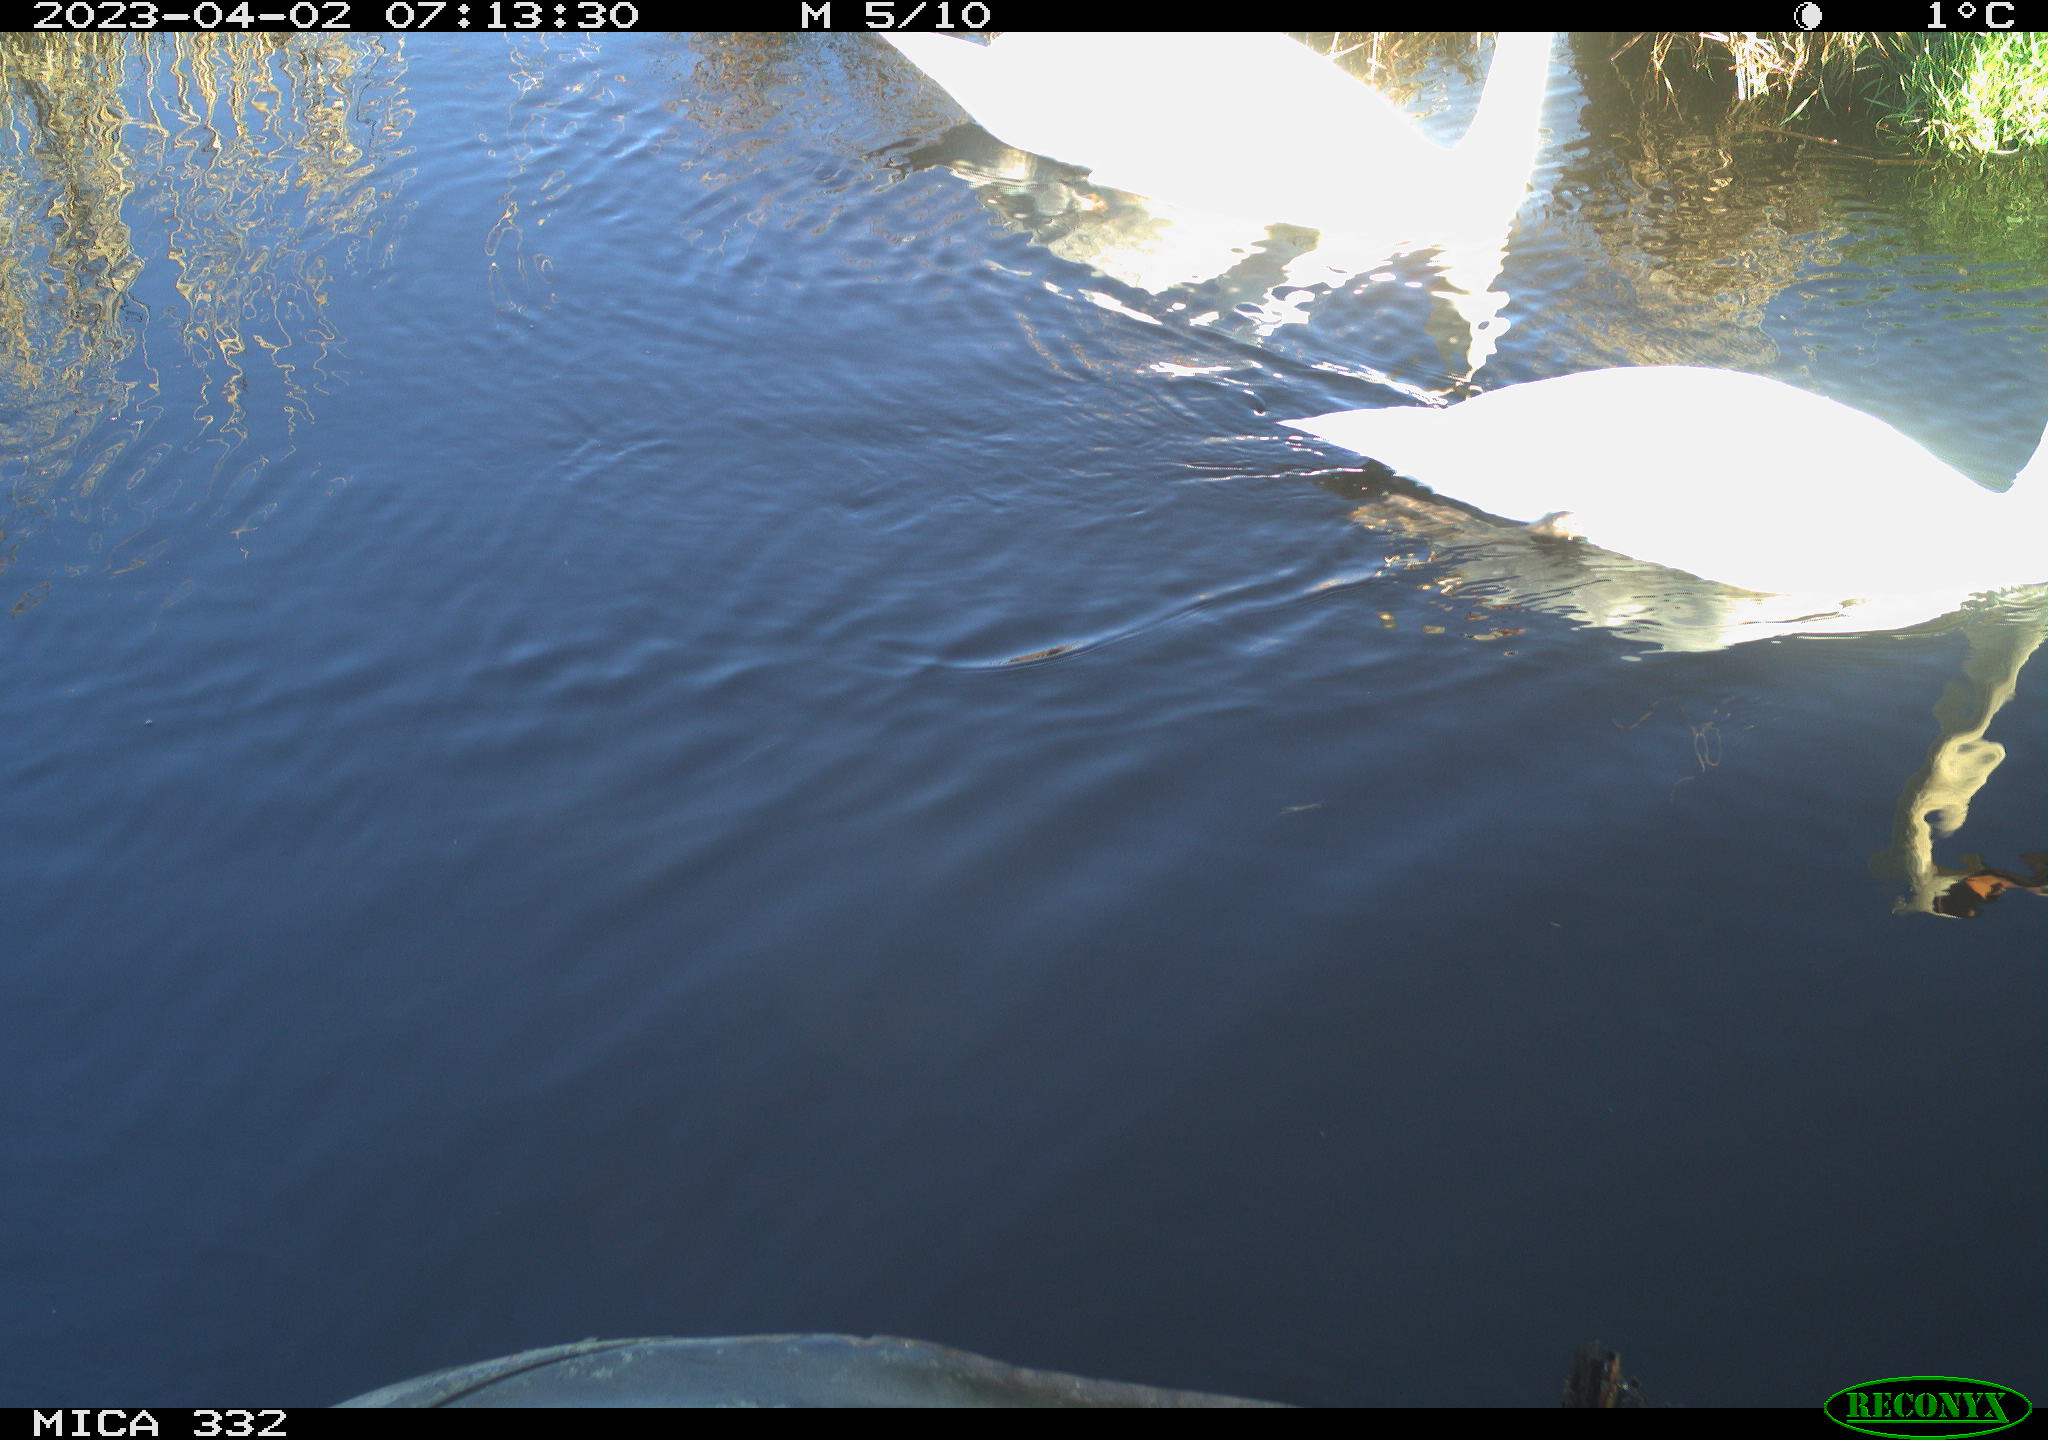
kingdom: Animalia
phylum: Chordata
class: Aves
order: Anseriformes
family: Anatidae
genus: Cygnus
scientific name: Cygnus olor
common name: Mute swan
